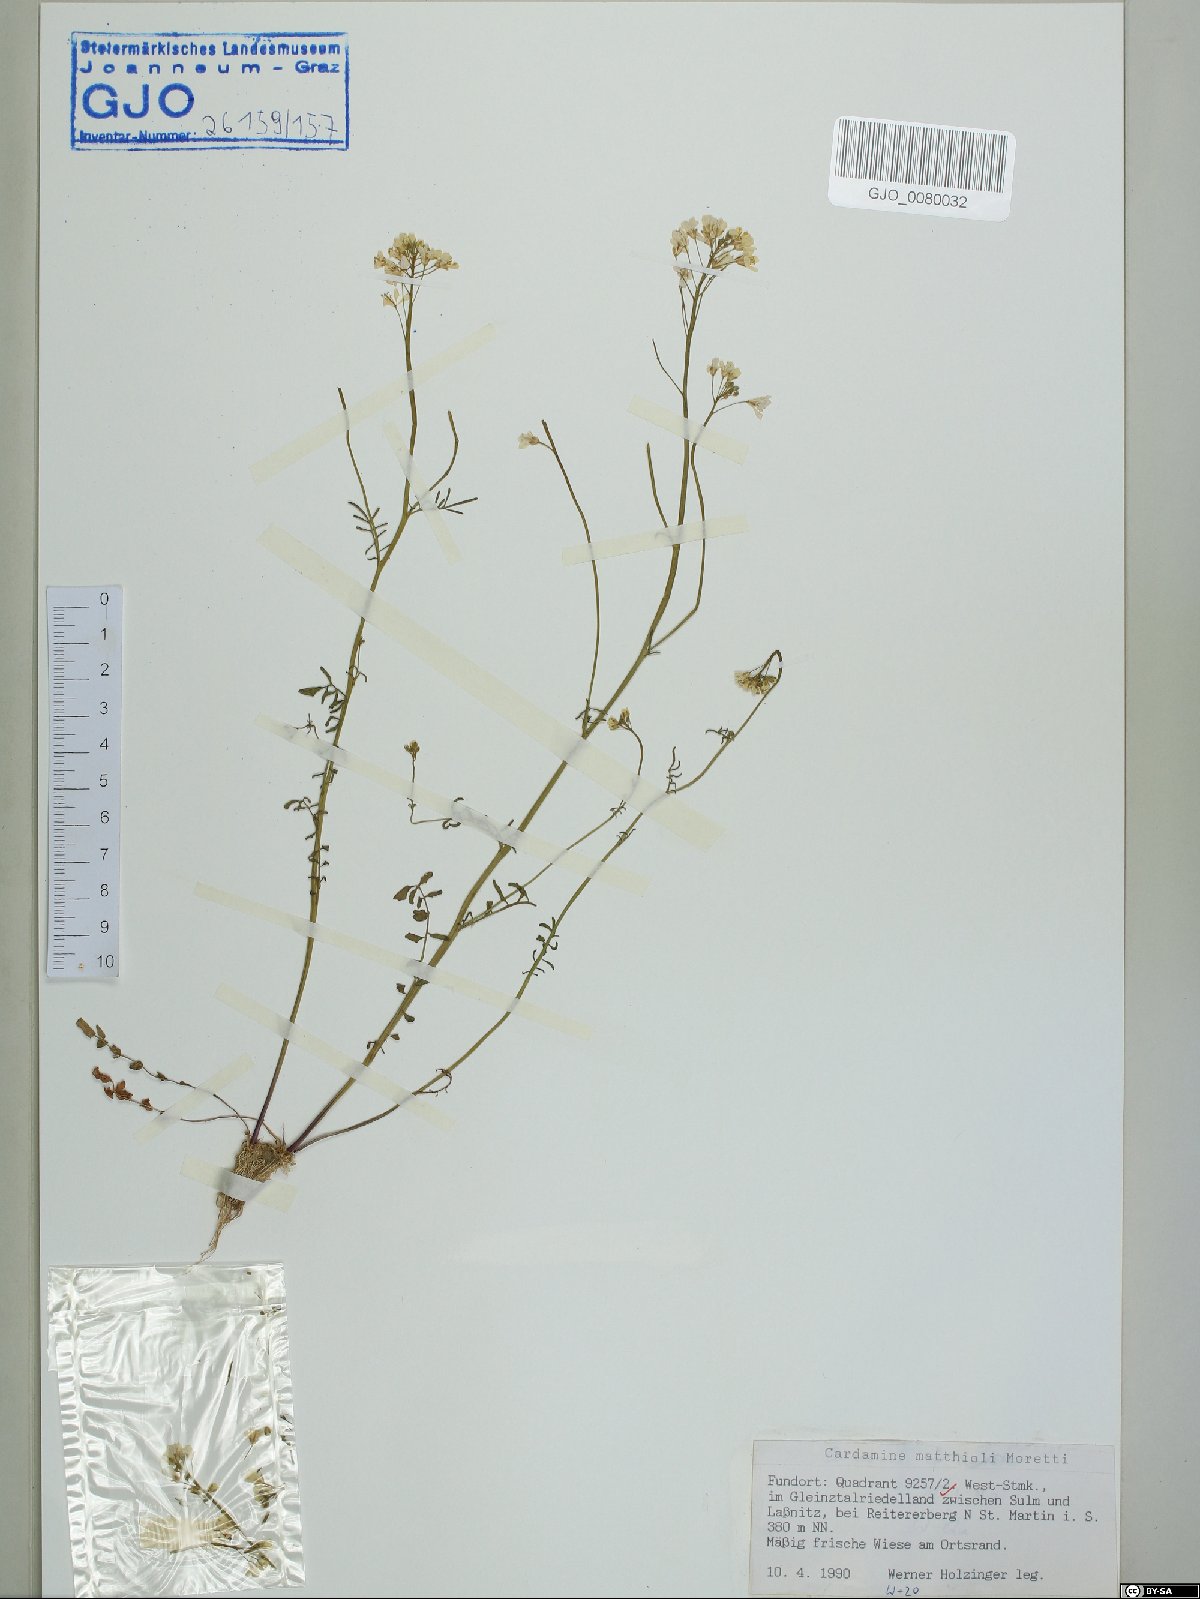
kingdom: Plantae
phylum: Tracheophyta
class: Magnoliopsida
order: Brassicales
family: Brassicaceae
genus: Cardamine
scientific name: Cardamine matthioli
